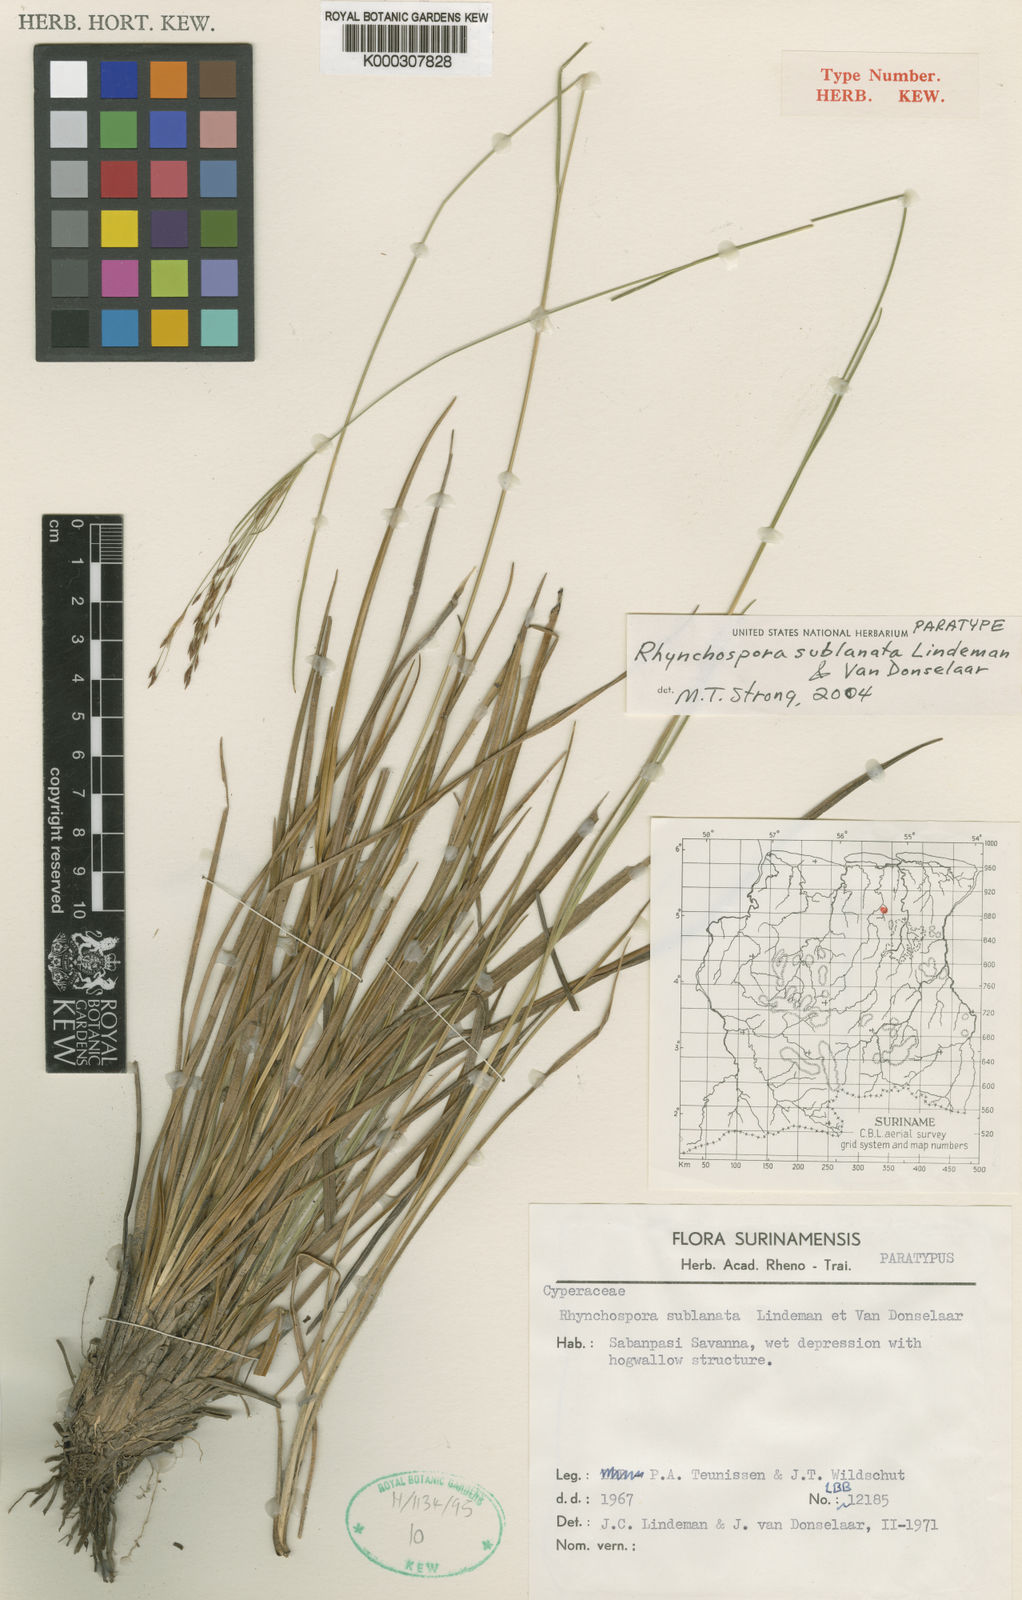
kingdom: Plantae
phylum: Tracheophyta
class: Liliopsida
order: Poales
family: Cyperaceae
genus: Rhynchospora
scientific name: Rhynchospora sublanata
